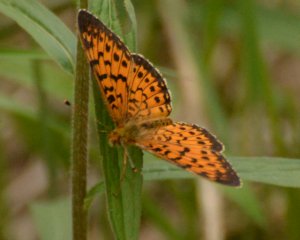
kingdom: Animalia
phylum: Arthropoda
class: Insecta
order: Lepidoptera
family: Nymphalidae
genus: Boloria
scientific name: Boloria selene
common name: Silver-bordered Fritillary
